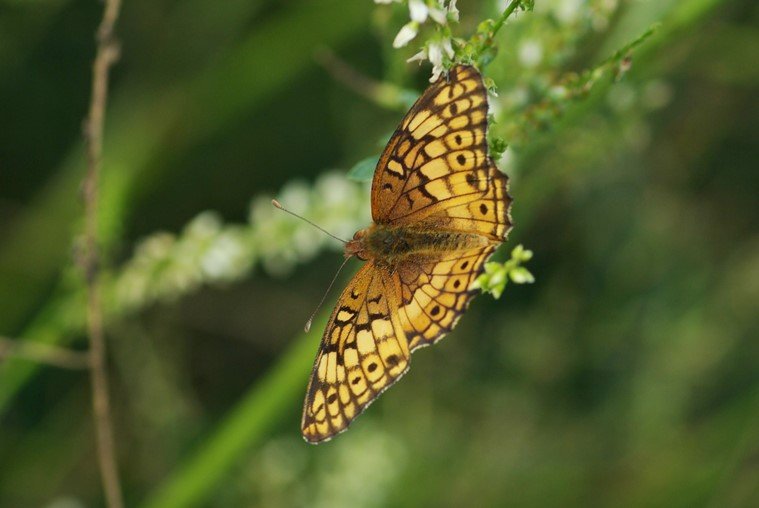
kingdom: Animalia
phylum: Arthropoda
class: Insecta
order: Lepidoptera
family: Nymphalidae
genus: Euptoieta
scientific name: Euptoieta claudia
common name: Variegated Fritillary
